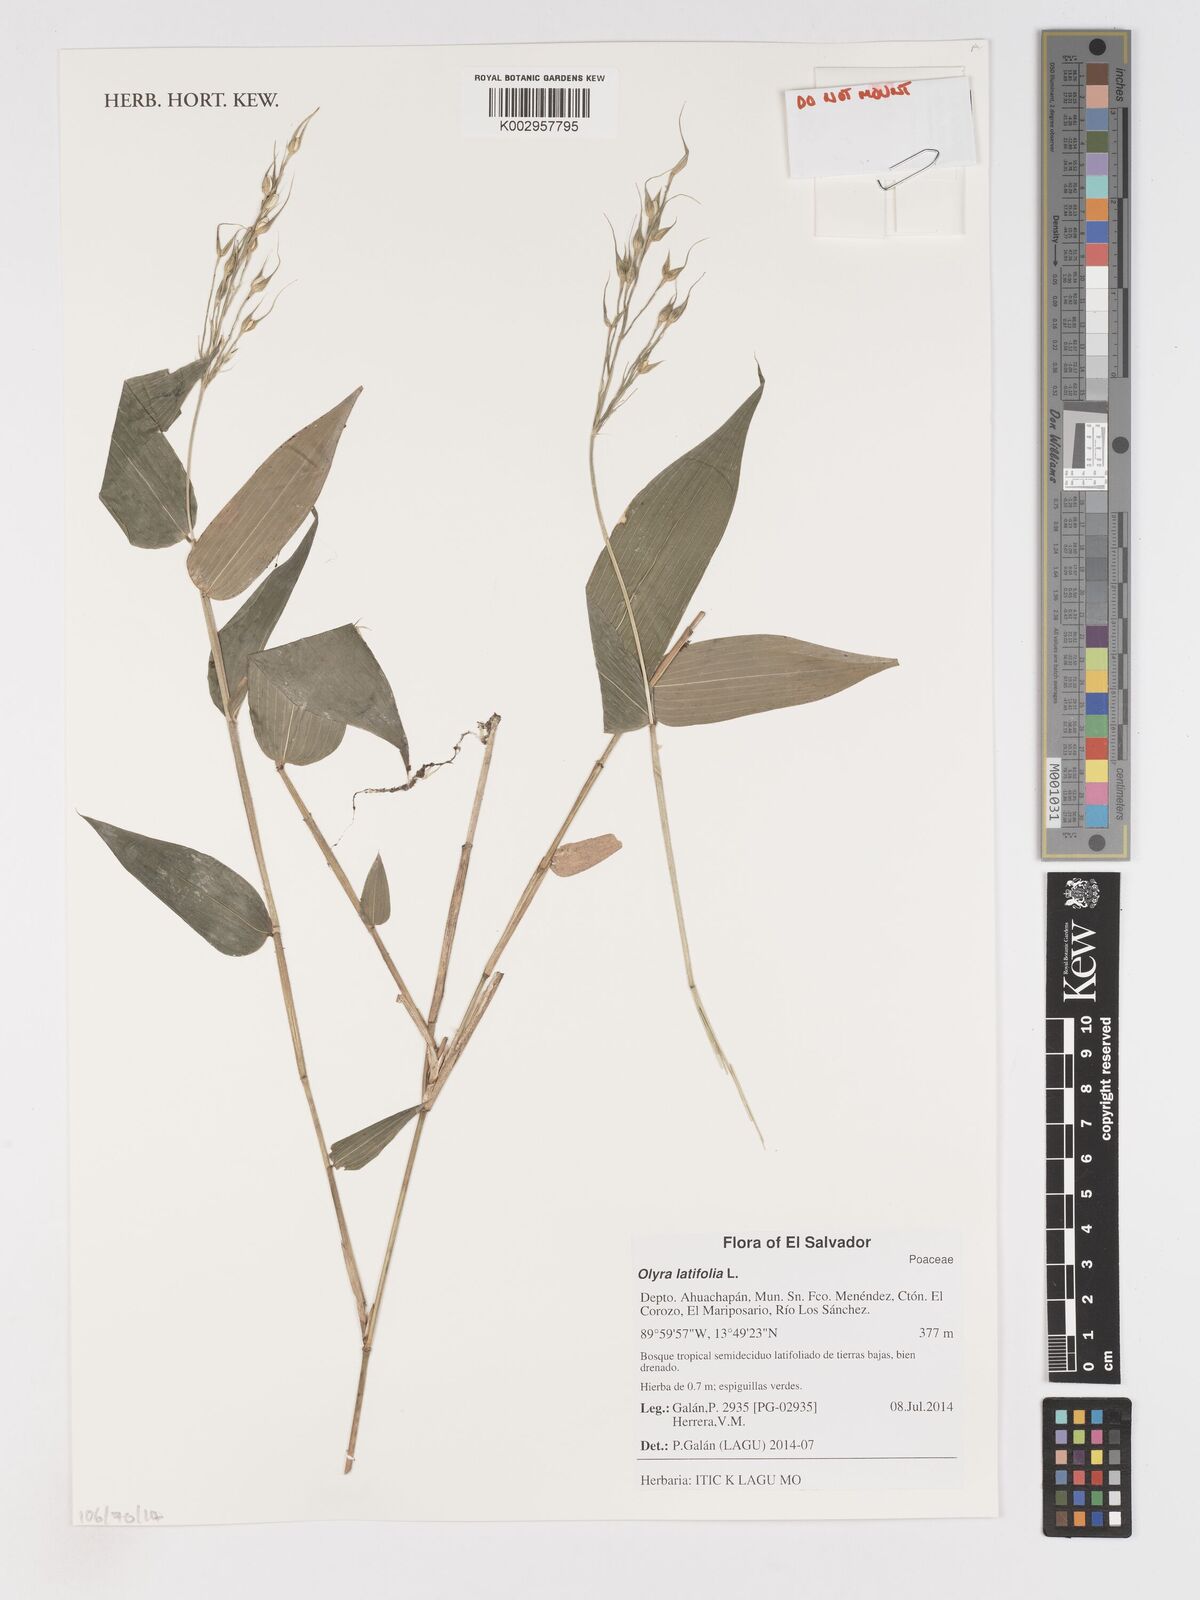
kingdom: Plantae
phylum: Tracheophyta
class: Liliopsida
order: Poales
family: Poaceae
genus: Olyra
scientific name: Olyra latifolia
